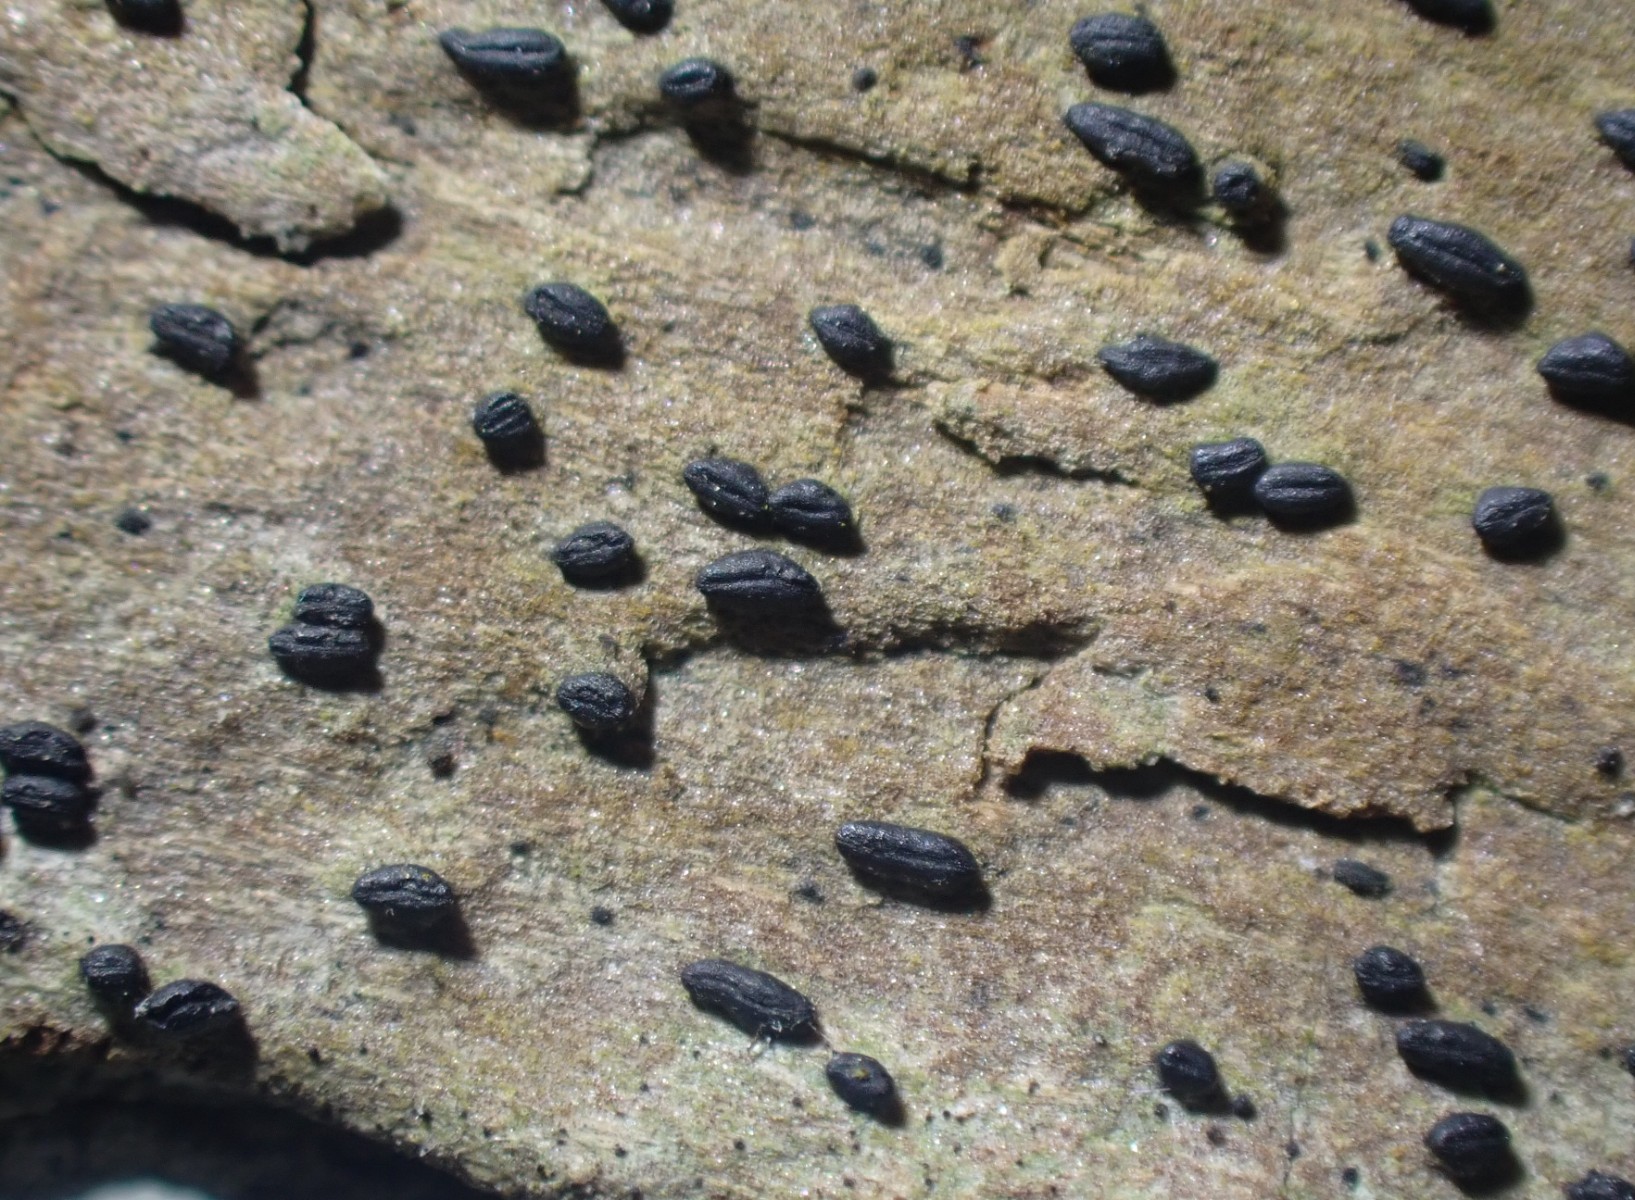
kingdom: Fungi
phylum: Ascomycota
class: Dothideomycetes
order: Hysteriales
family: Hysteriaceae
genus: Hysterium
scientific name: Hysterium acuminatum
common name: almindelig kulmund
